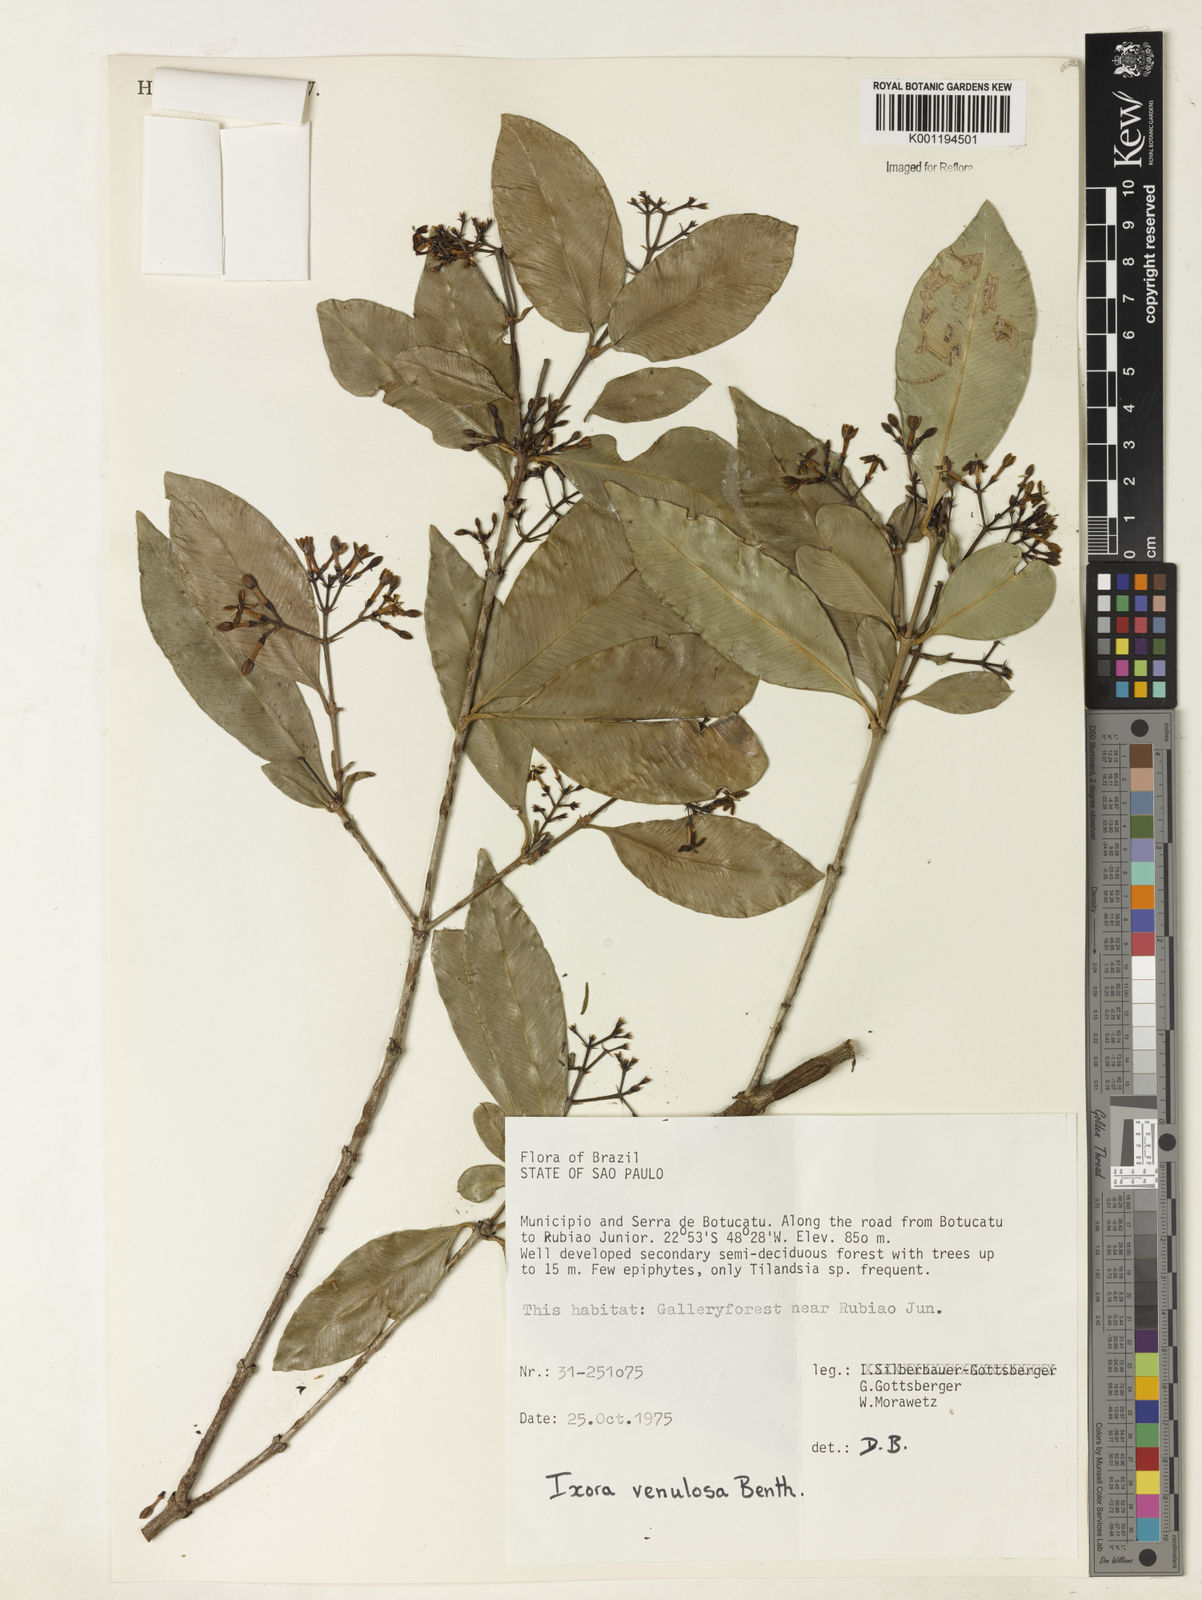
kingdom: Plantae
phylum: Tracheophyta
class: Magnoliopsida
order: Gentianales
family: Rubiaceae
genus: Ixora
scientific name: Ixora venulosa
